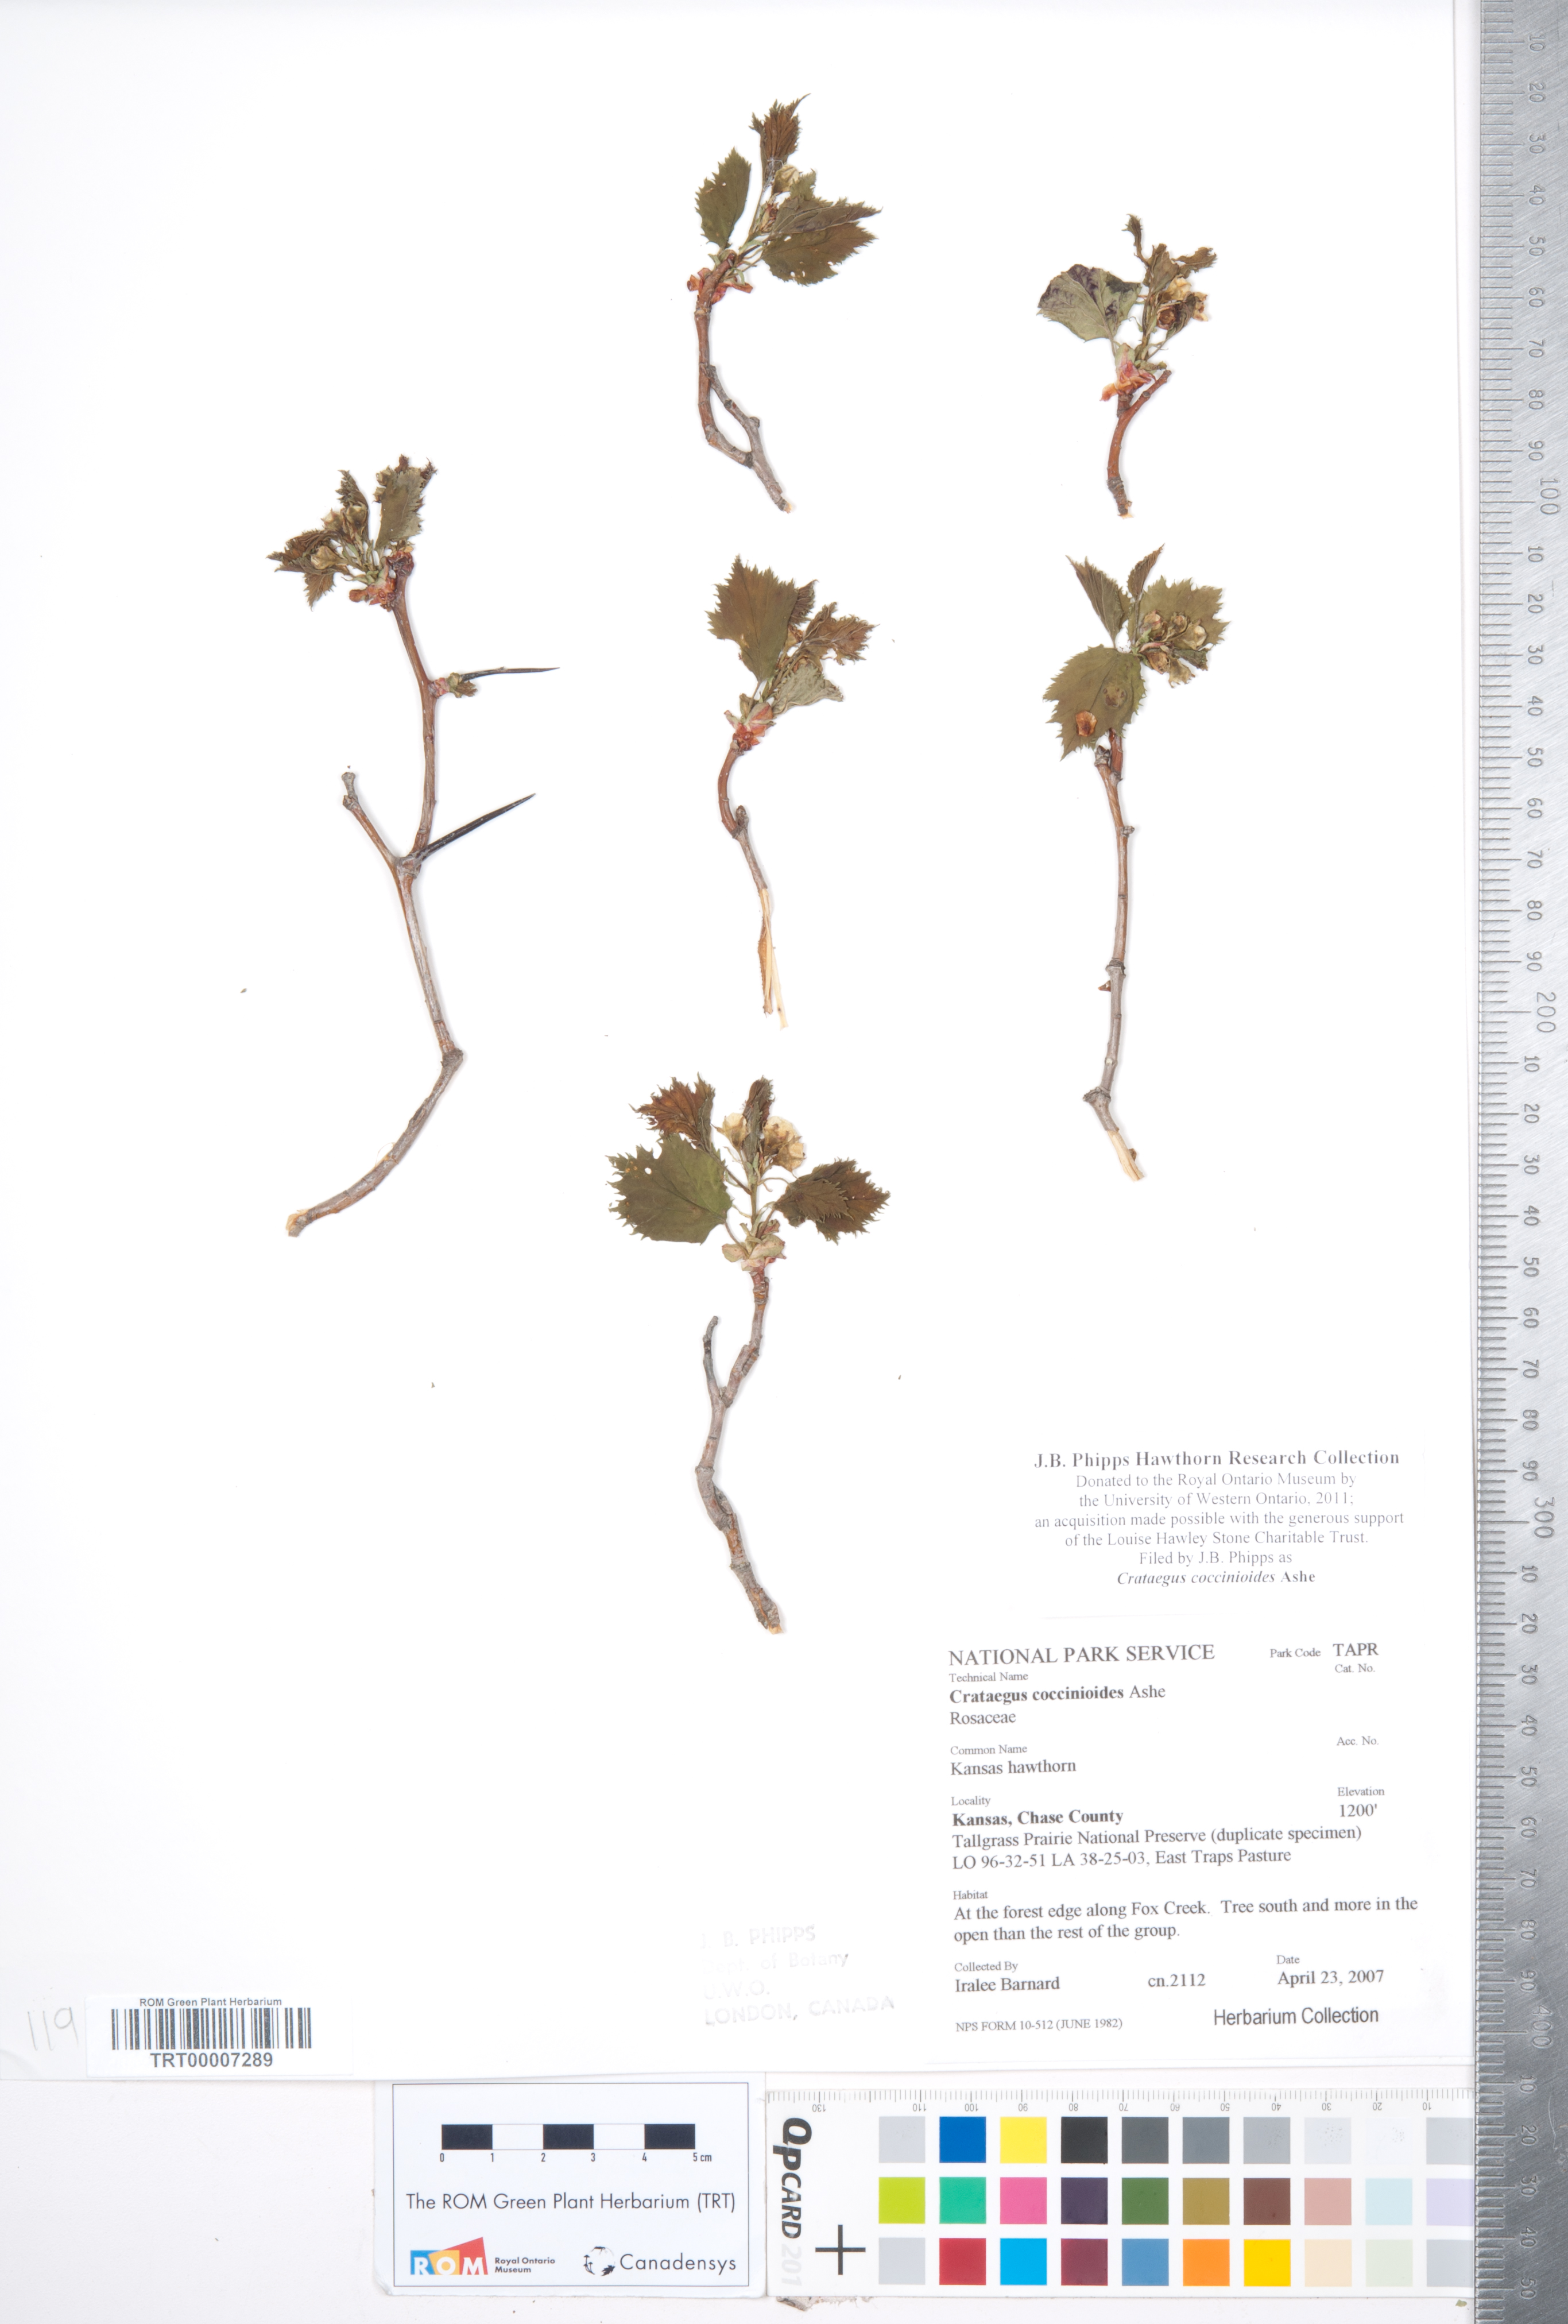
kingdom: Plantae
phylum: Tracheophyta
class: Magnoliopsida
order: Rosales
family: Rosaceae
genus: Crataegus
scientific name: Crataegus coccinioides
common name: Large-flowered cockspurthorn
